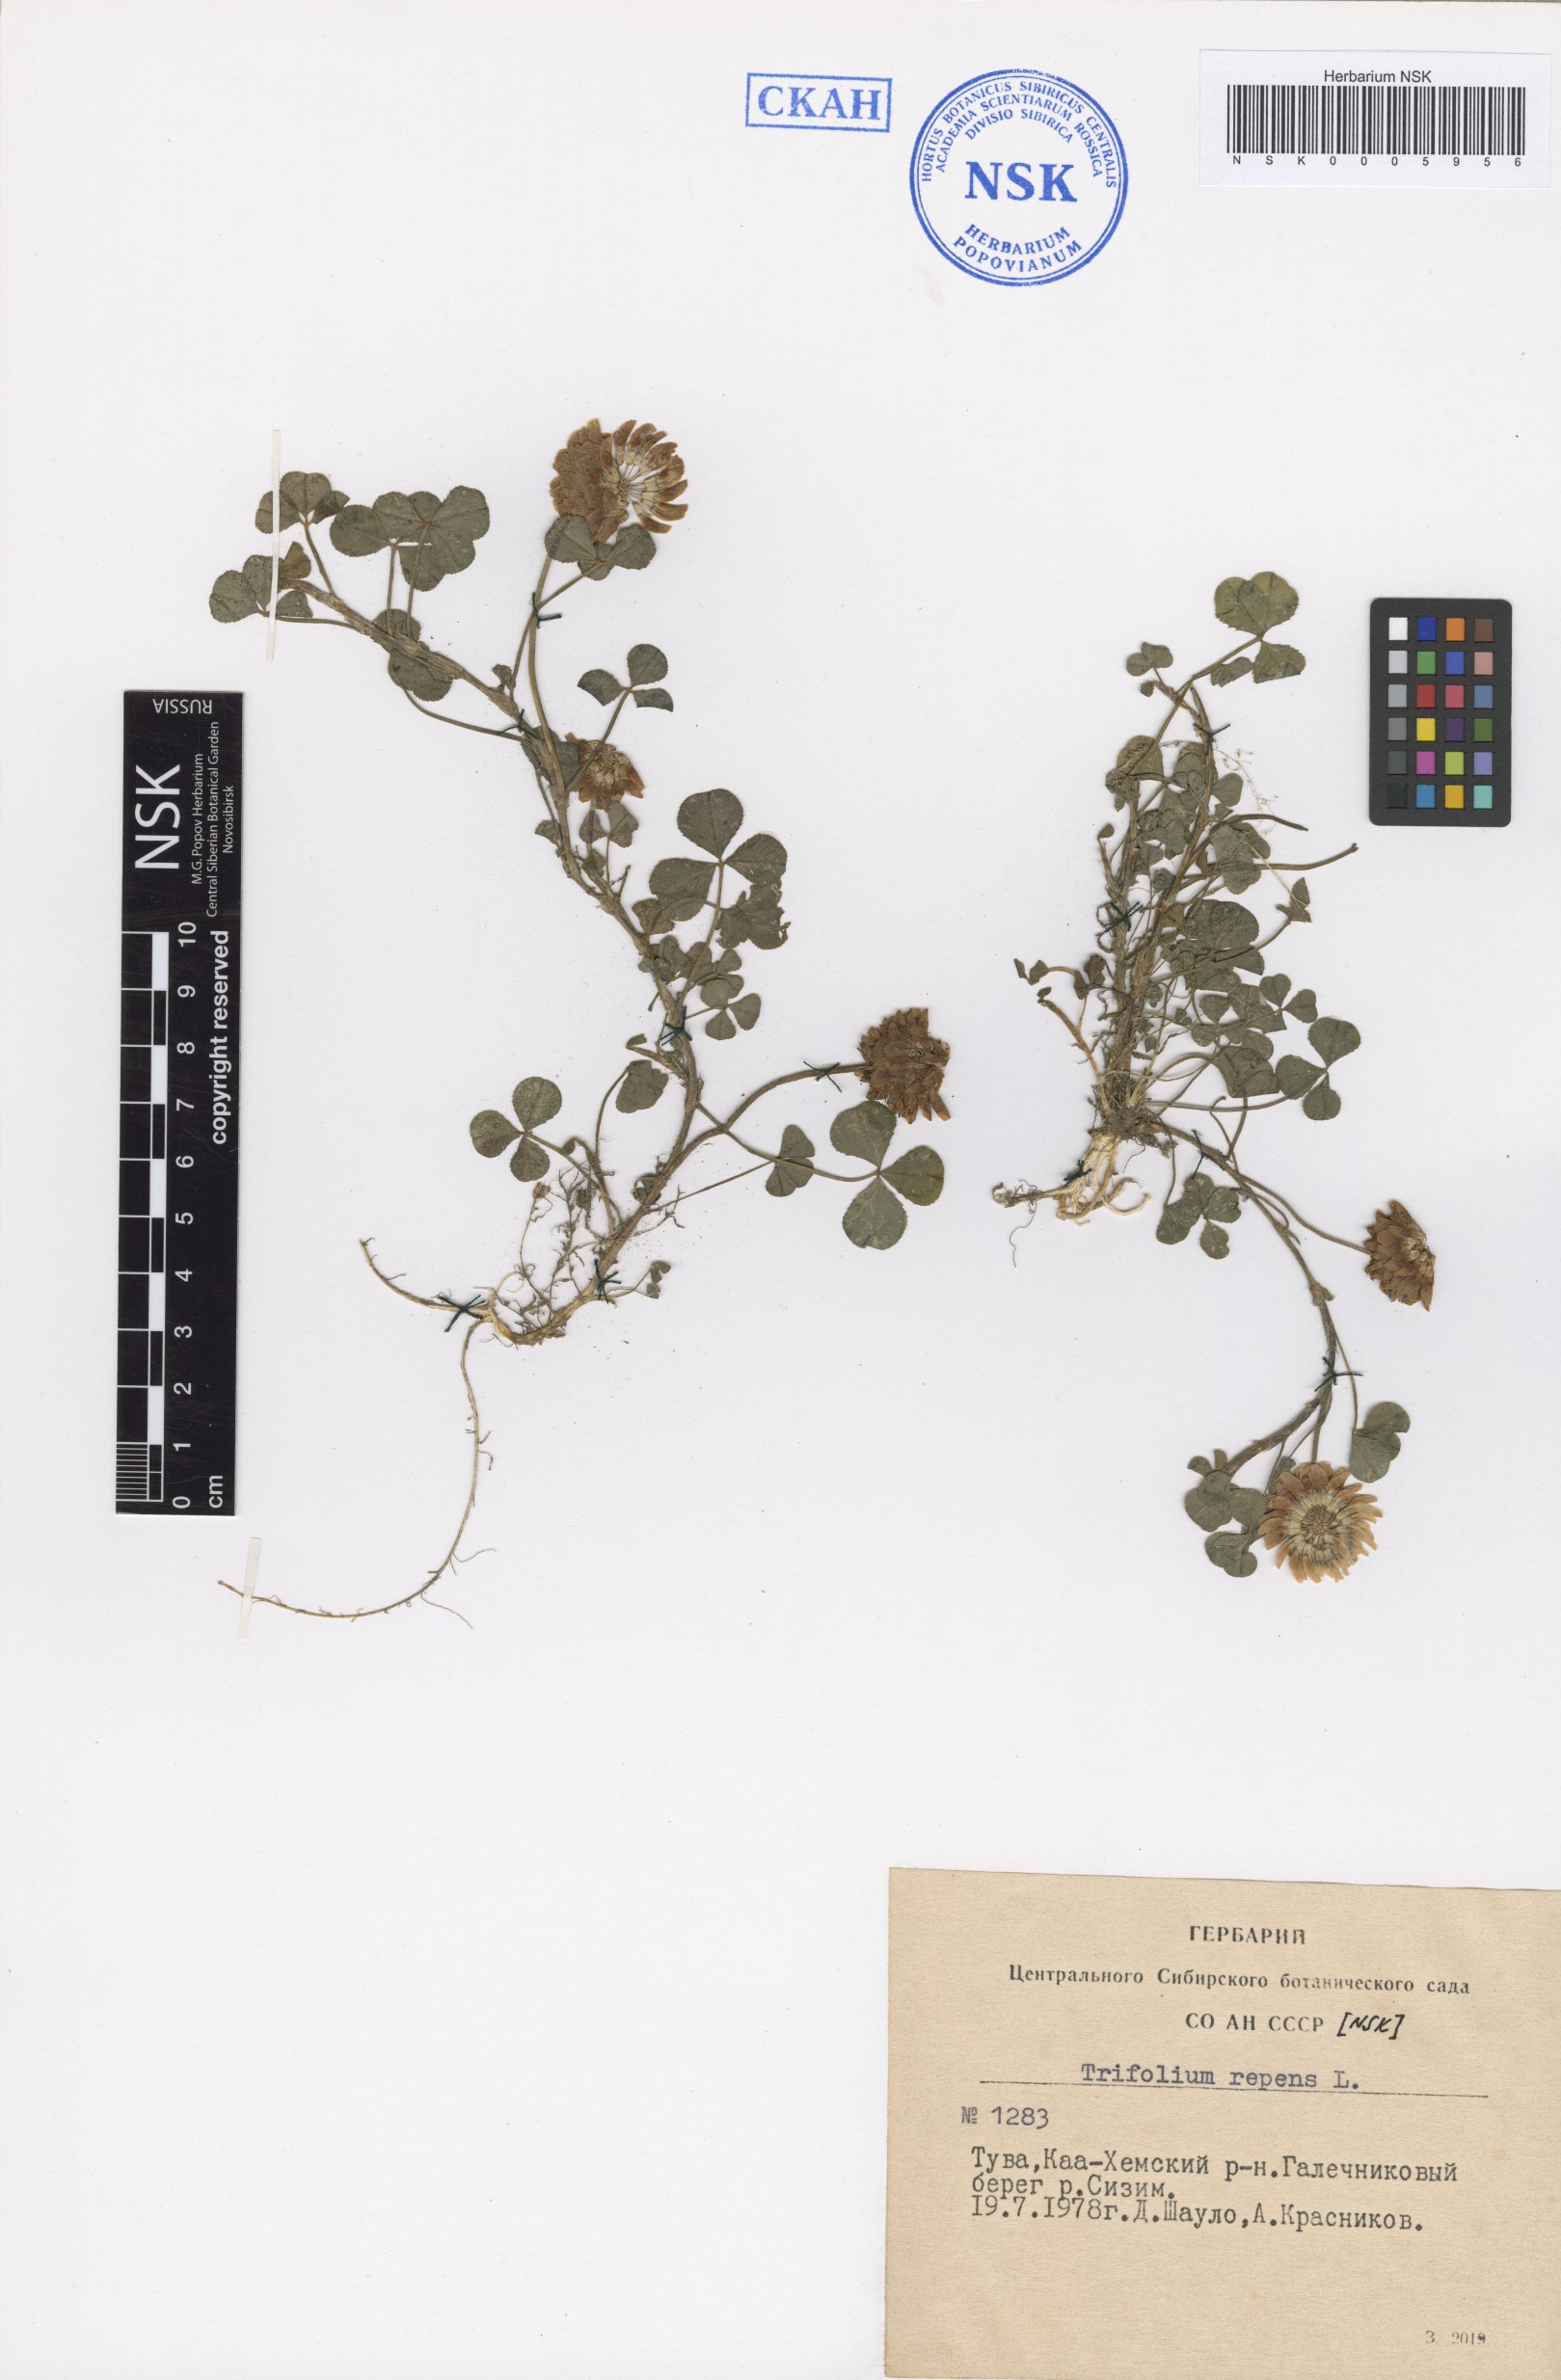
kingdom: Plantae
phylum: Tracheophyta
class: Magnoliopsida
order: Fabales
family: Fabaceae
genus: Trifolium
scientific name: Trifolium repens
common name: White clover
